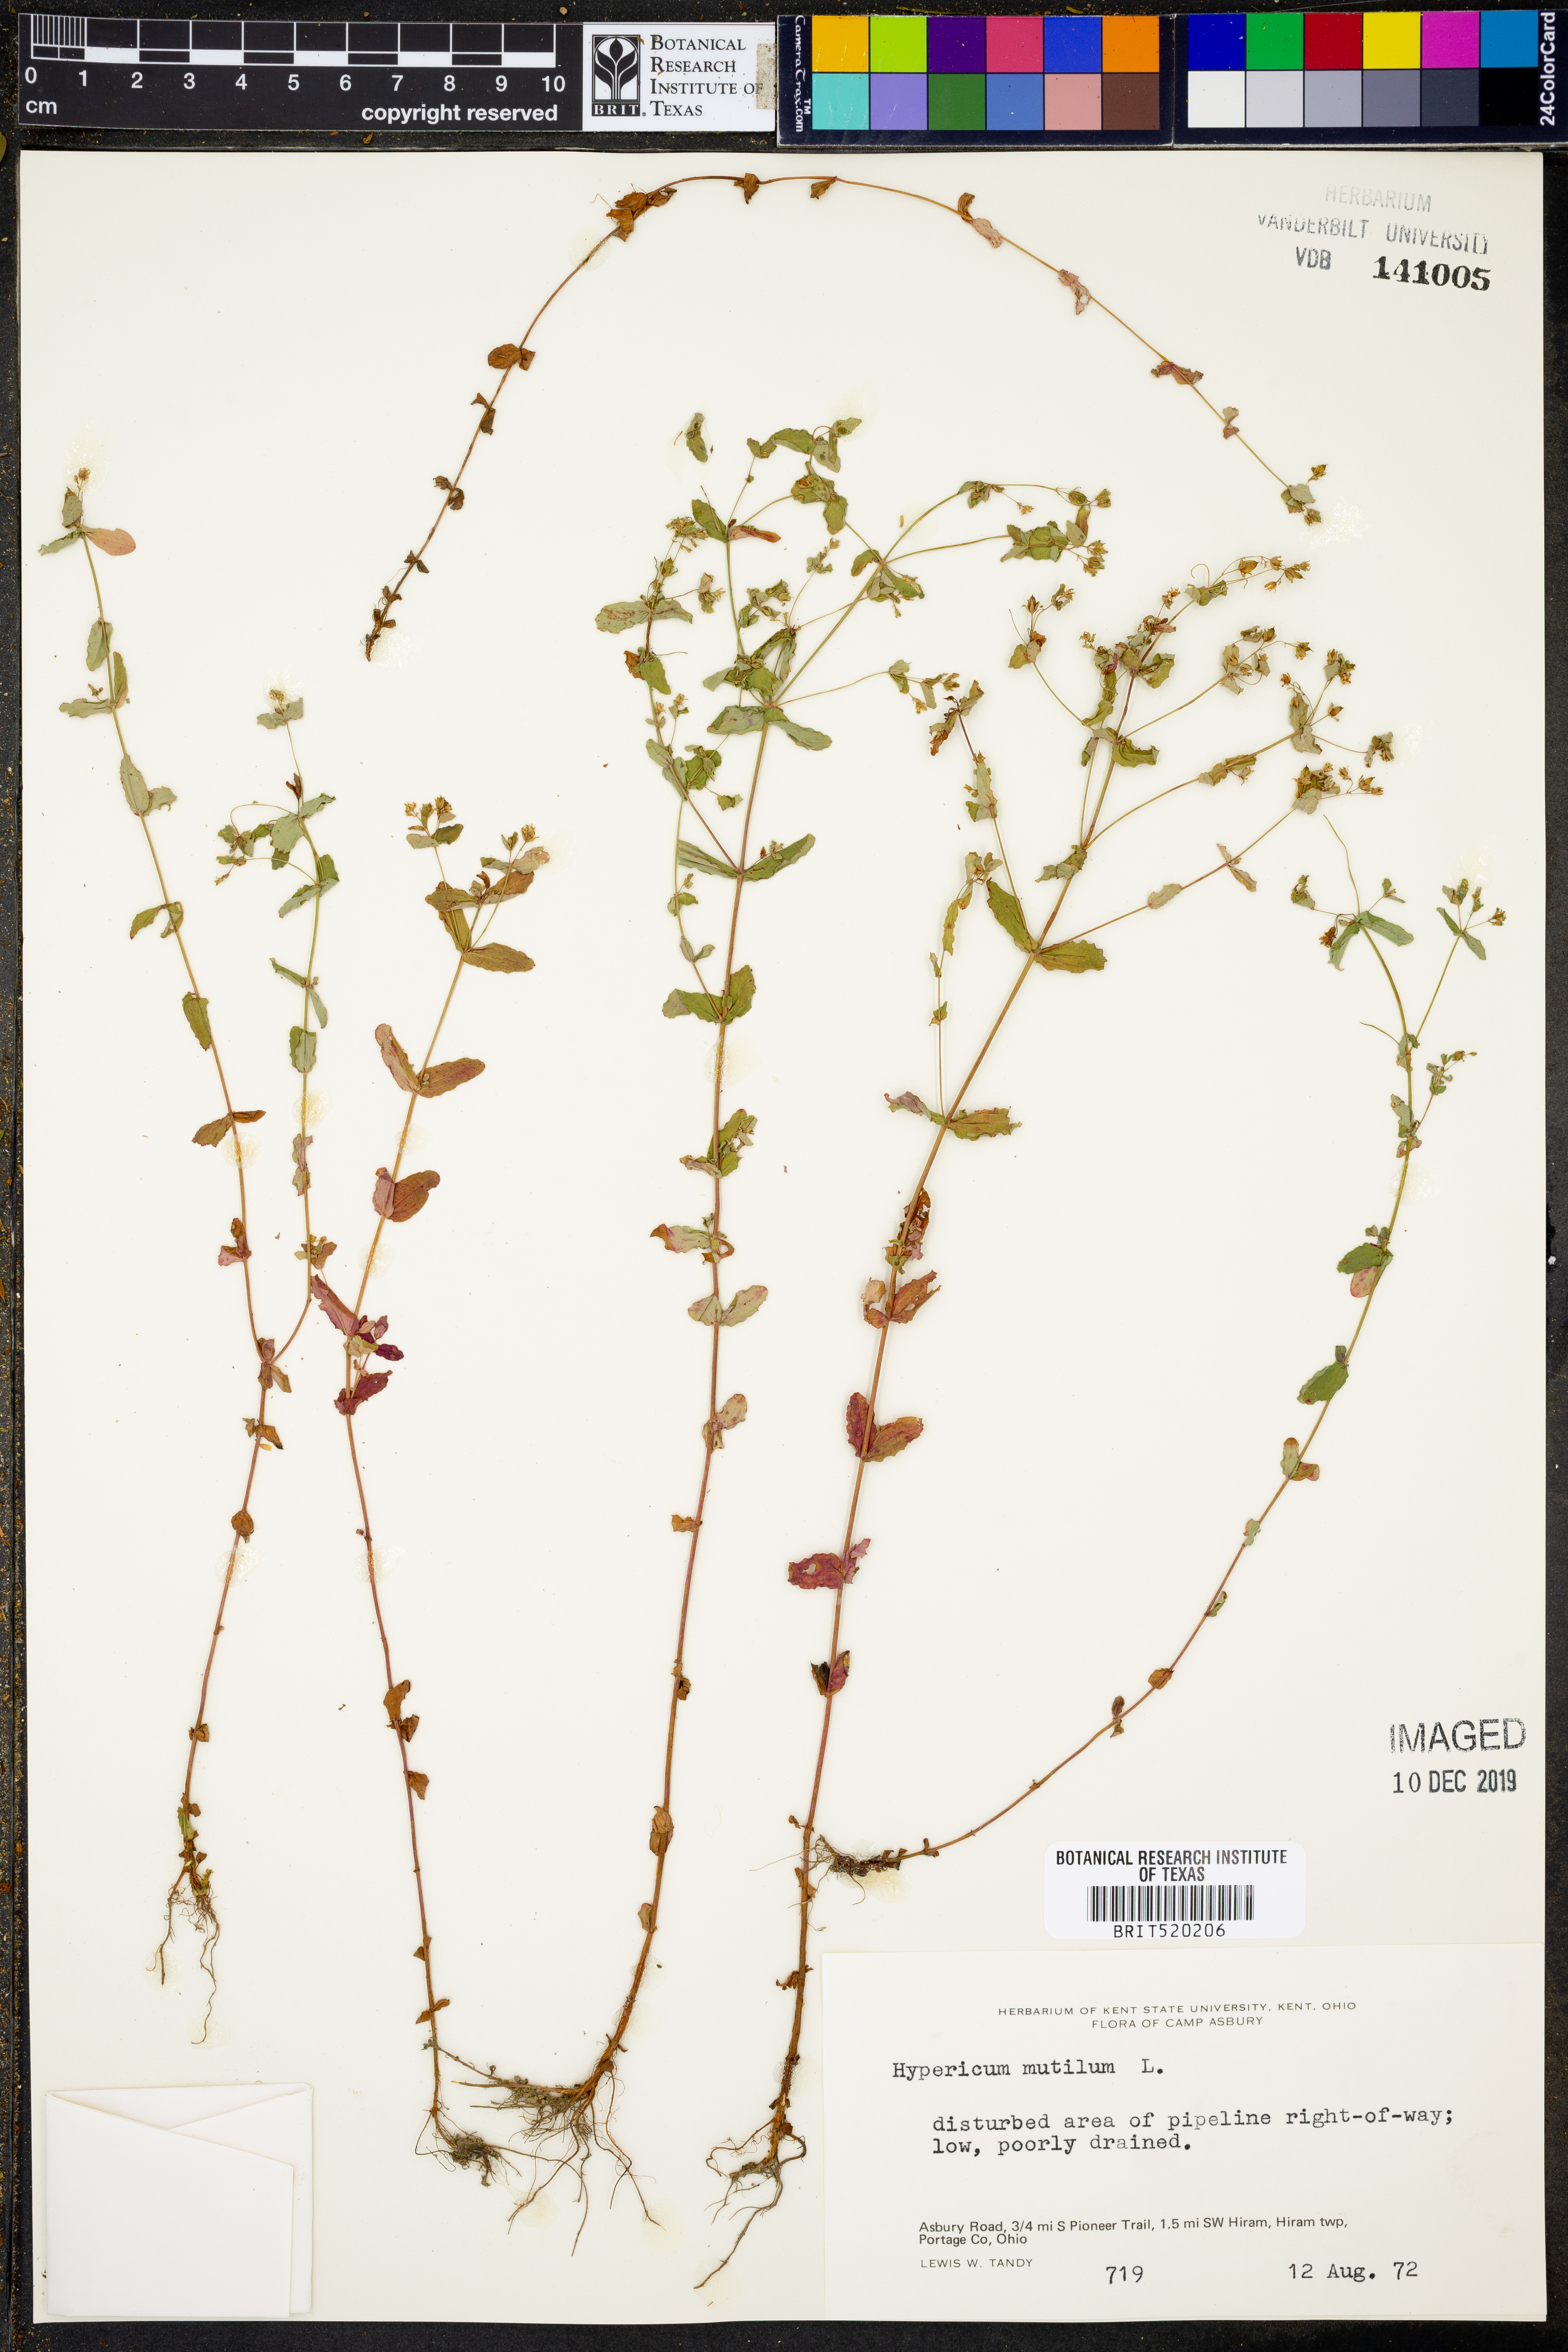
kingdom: Plantae
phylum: Tracheophyta
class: Magnoliopsida
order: Malpighiales
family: Hypericaceae
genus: Hypericum
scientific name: Hypericum mutilum
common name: Dwarf st. john's-wort
